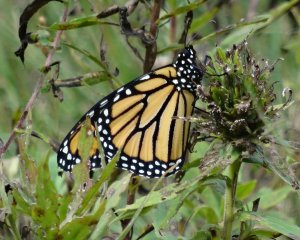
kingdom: Animalia
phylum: Arthropoda
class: Insecta
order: Lepidoptera
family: Nymphalidae
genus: Danaus
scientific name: Danaus plexippus
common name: Monarch
